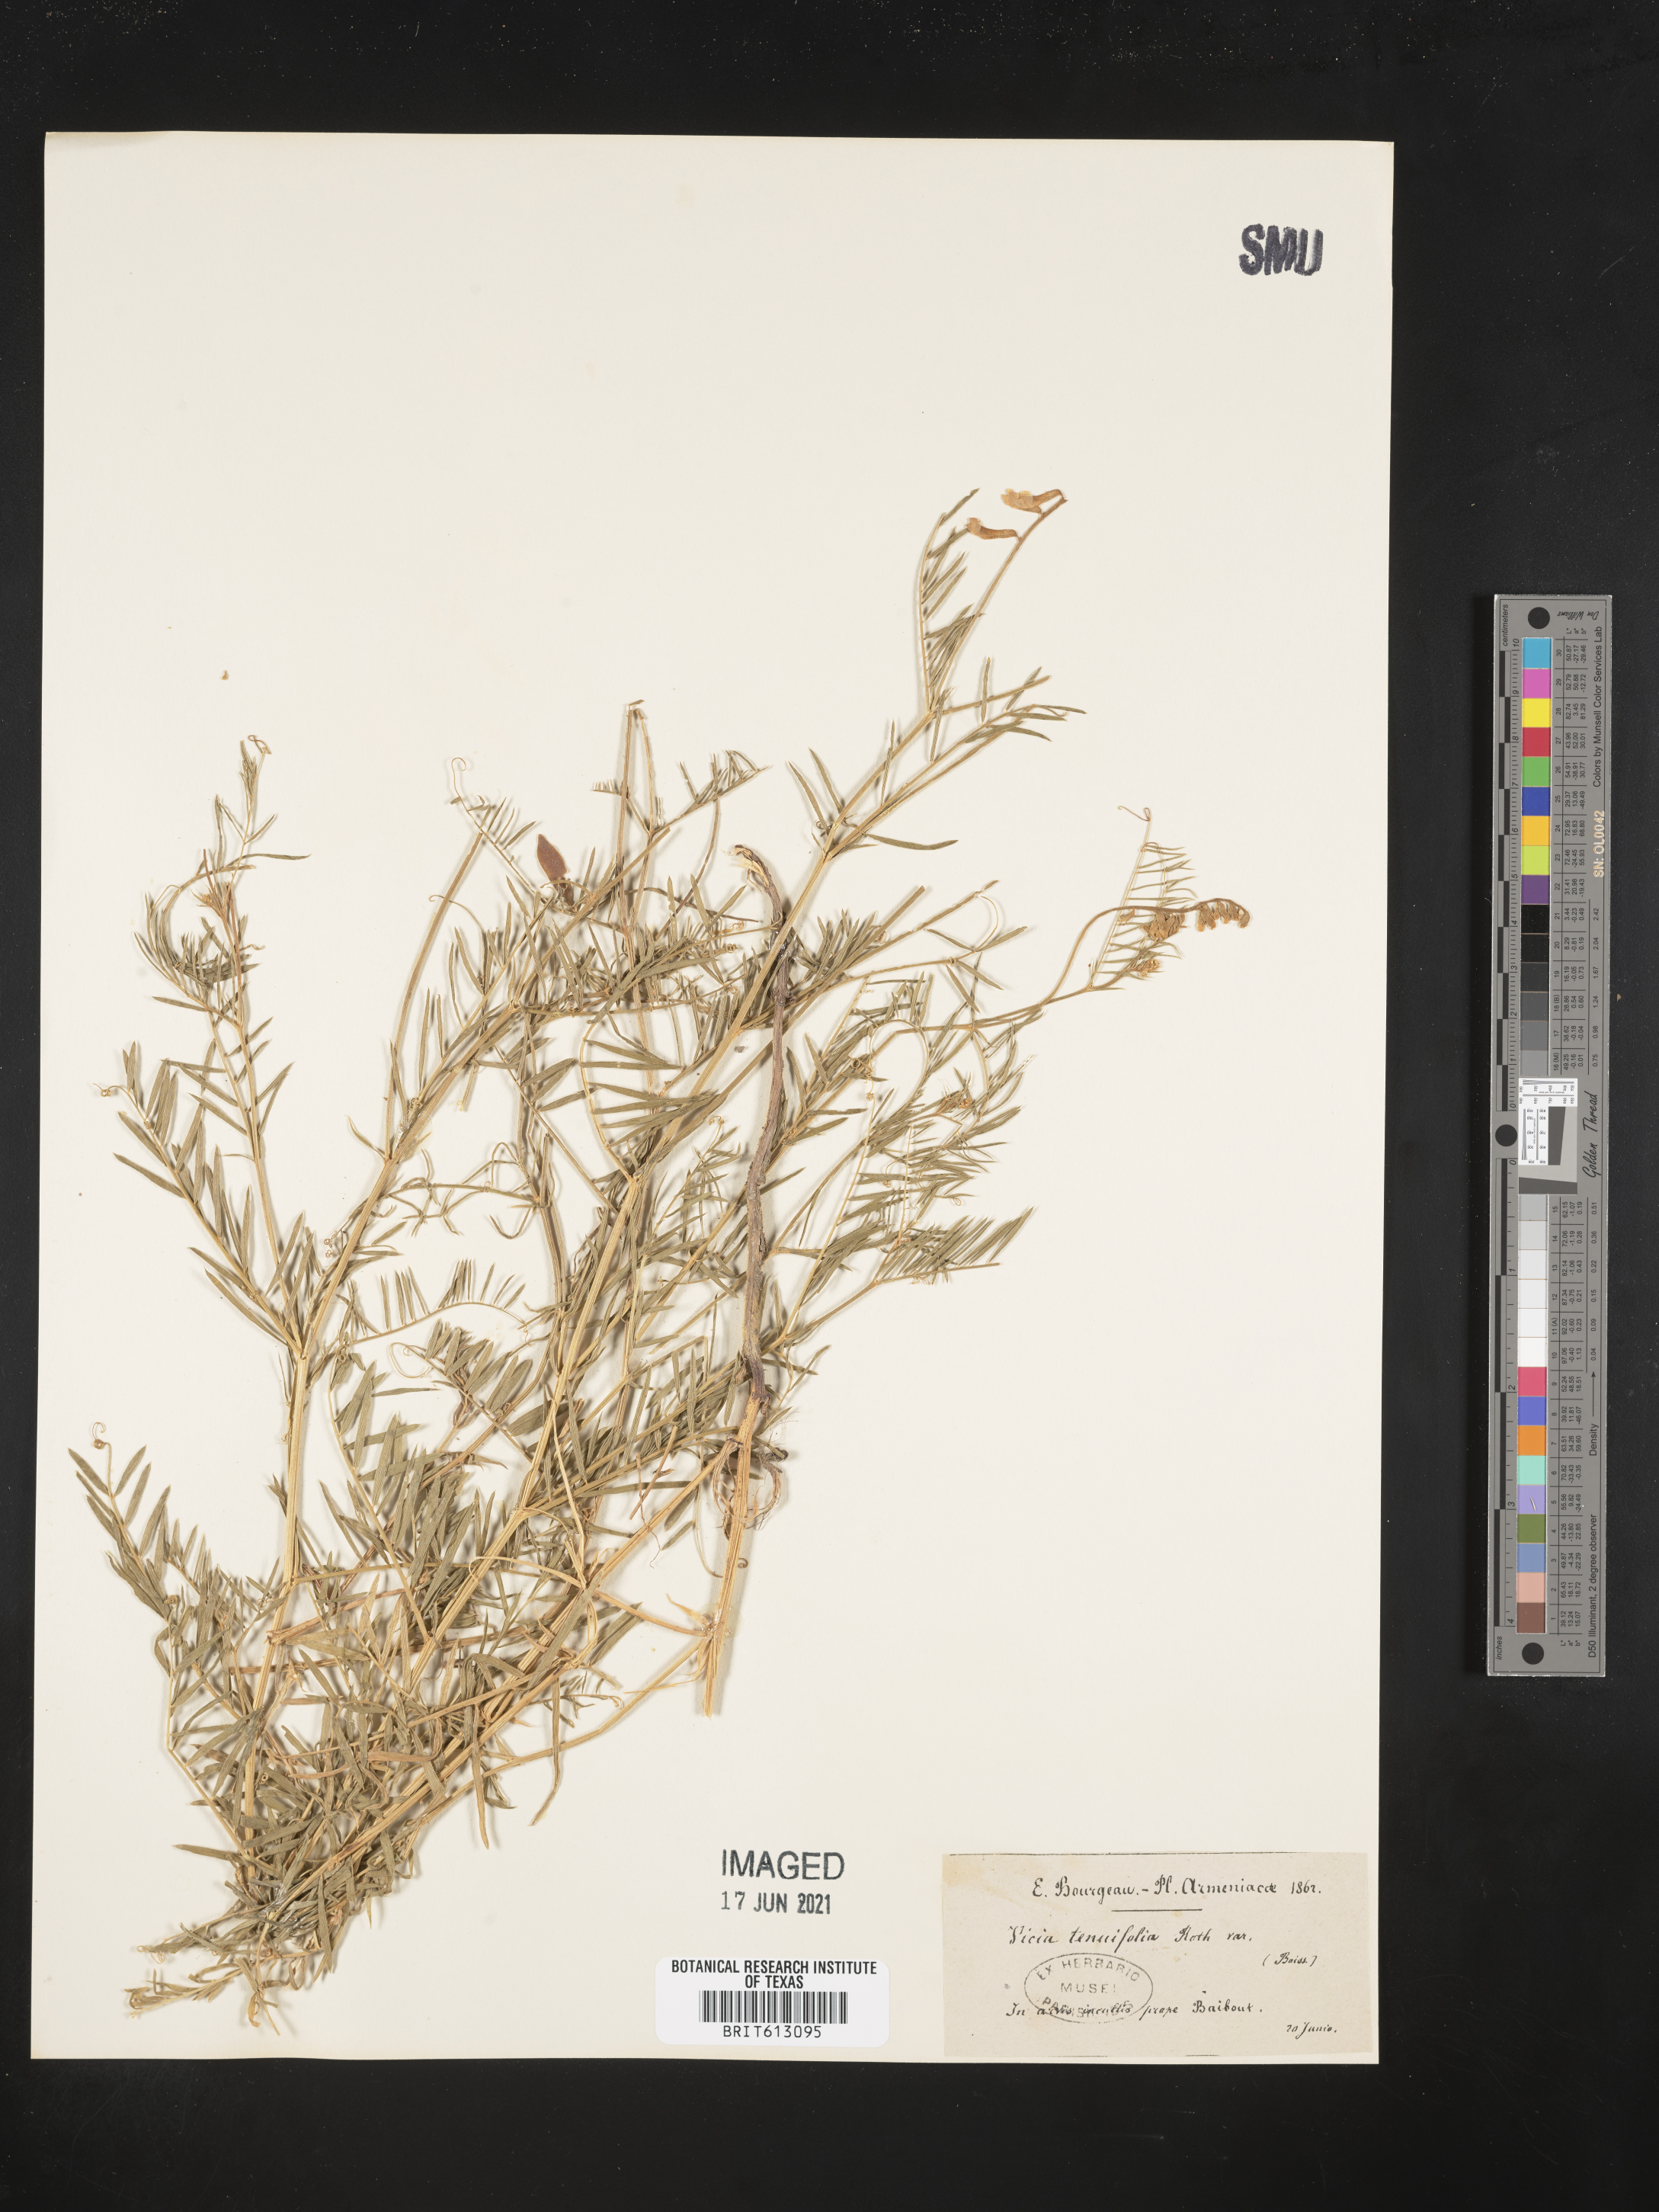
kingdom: Plantae
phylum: Tracheophyta
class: Magnoliopsida
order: Fabales
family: Fabaceae
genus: Vicia
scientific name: Vicia tenuifolia
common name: Fine-leaved vetch
